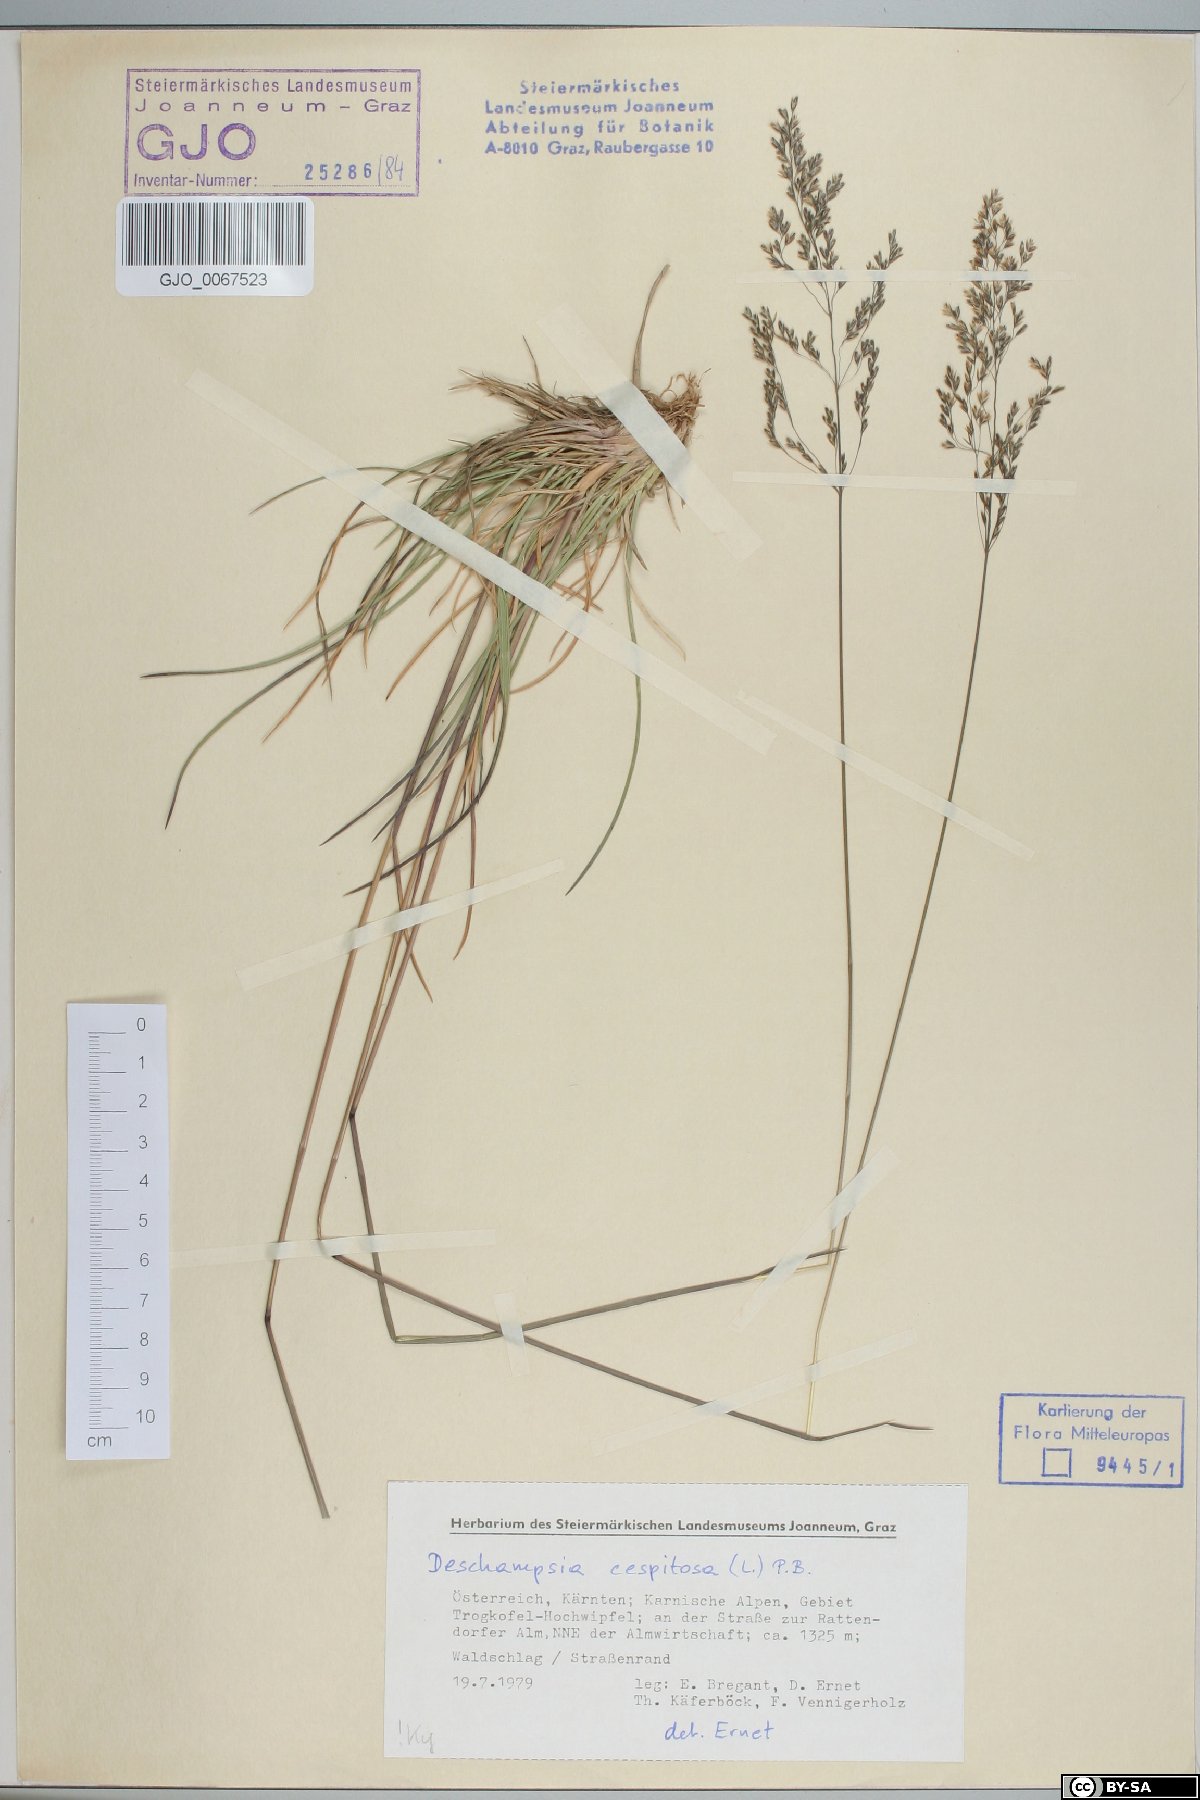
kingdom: Plantae
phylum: Tracheophyta
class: Liliopsida
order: Poales
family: Poaceae
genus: Deschampsia
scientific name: Deschampsia cespitosa
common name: Tufted hair-grass
